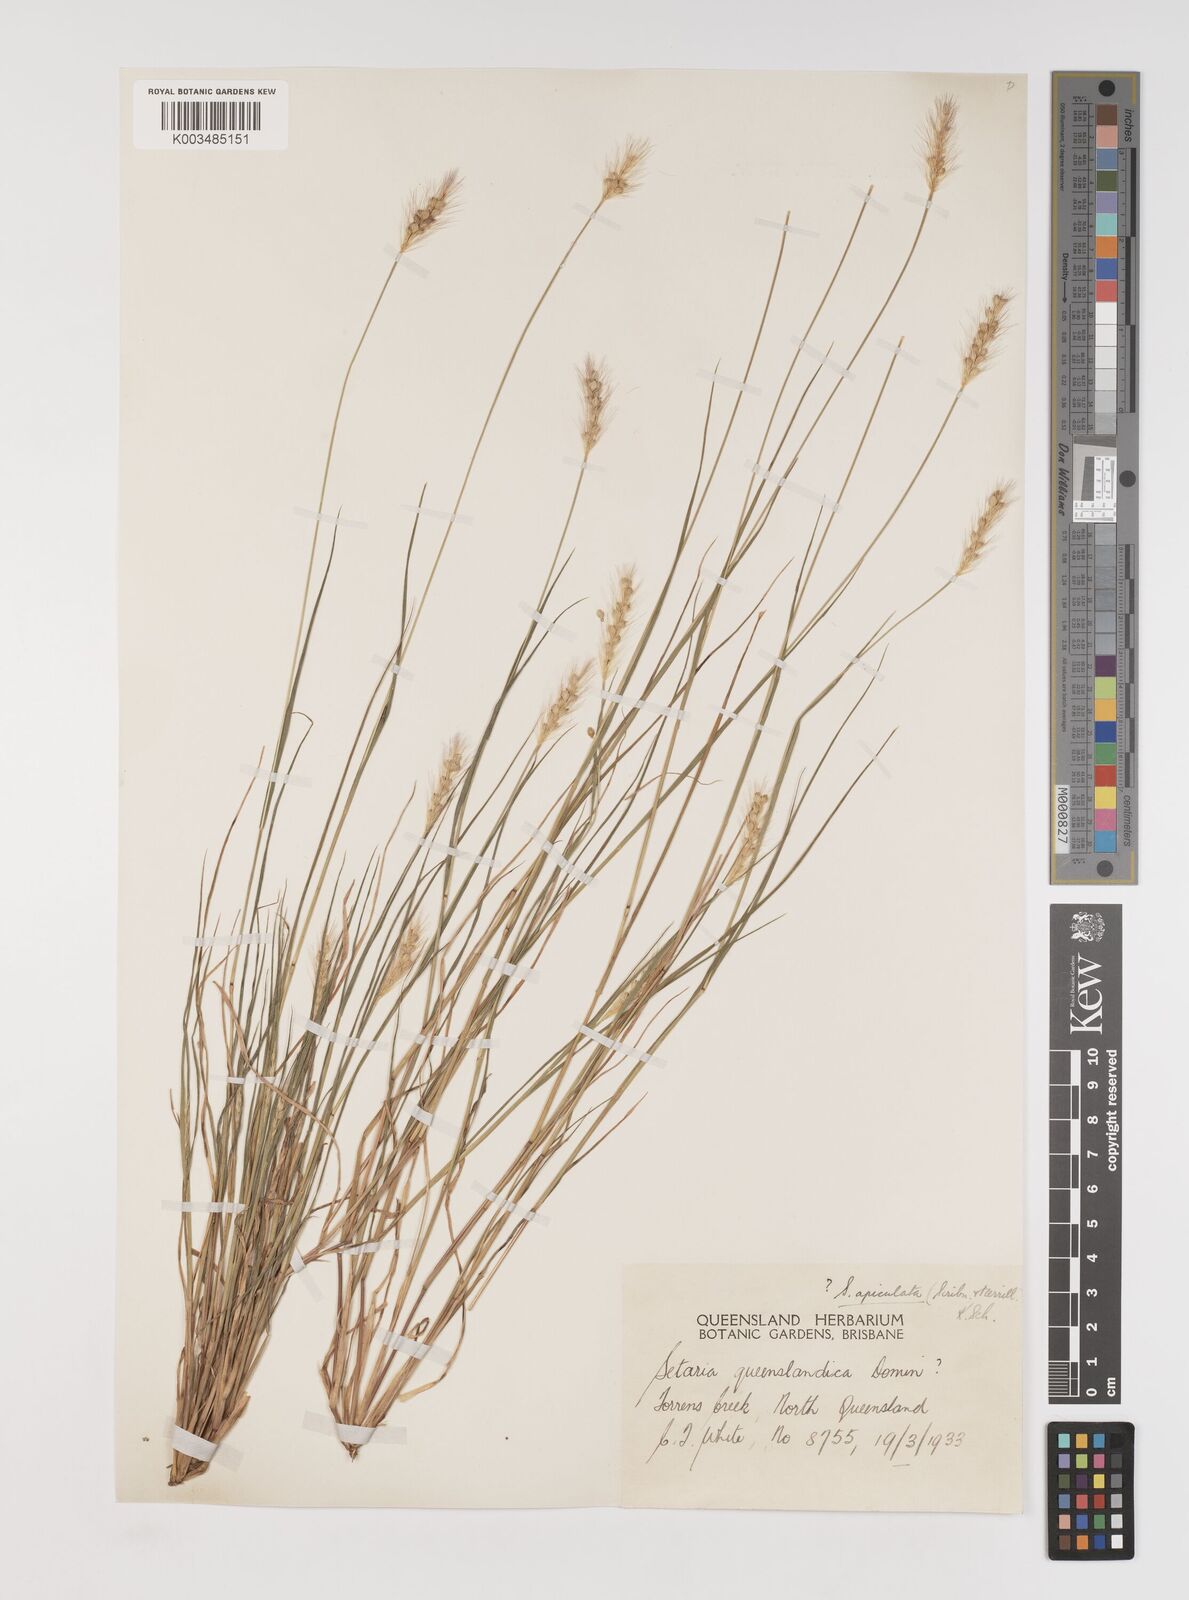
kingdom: Plantae
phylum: Tracheophyta
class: Liliopsida
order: Poales
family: Poaceae
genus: Setaria
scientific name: Setaria apiculata
